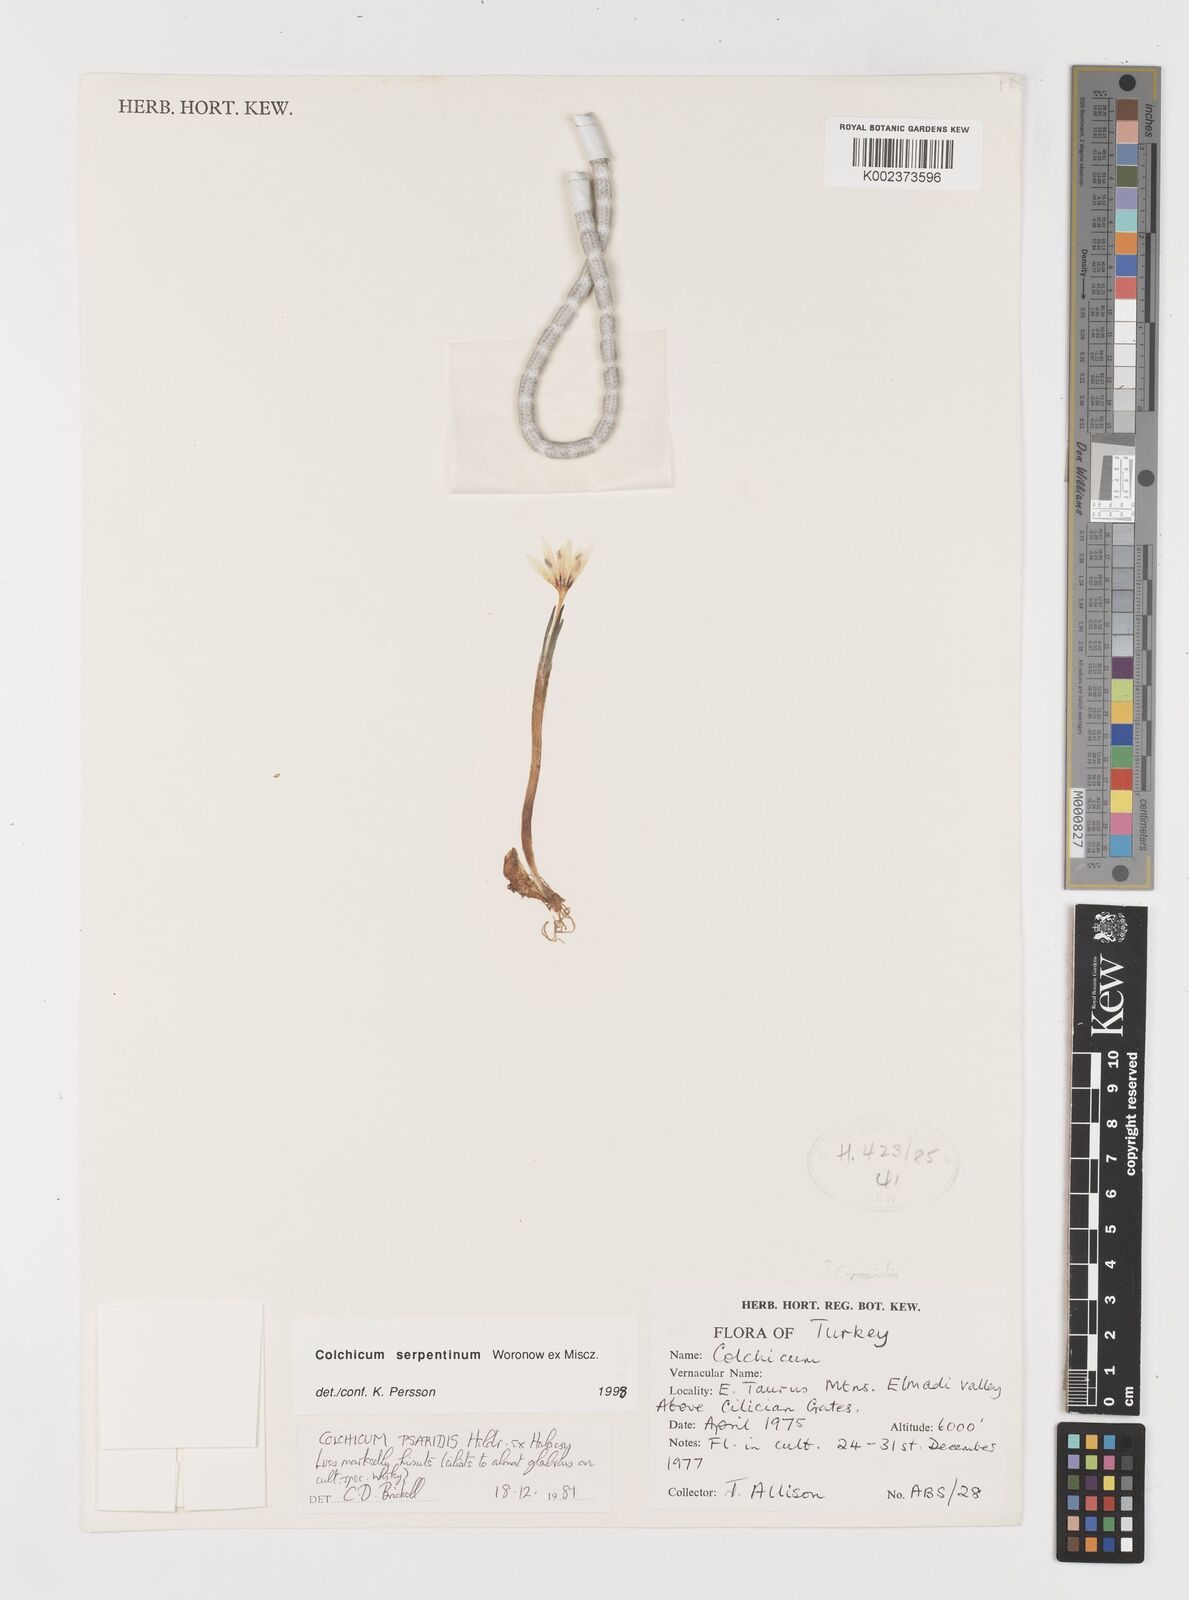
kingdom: Plantae
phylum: Tracheophyta
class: Liliopsida
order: Liliales
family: Colchicaceae
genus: Colchicum
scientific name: Colchicum serpentinum
